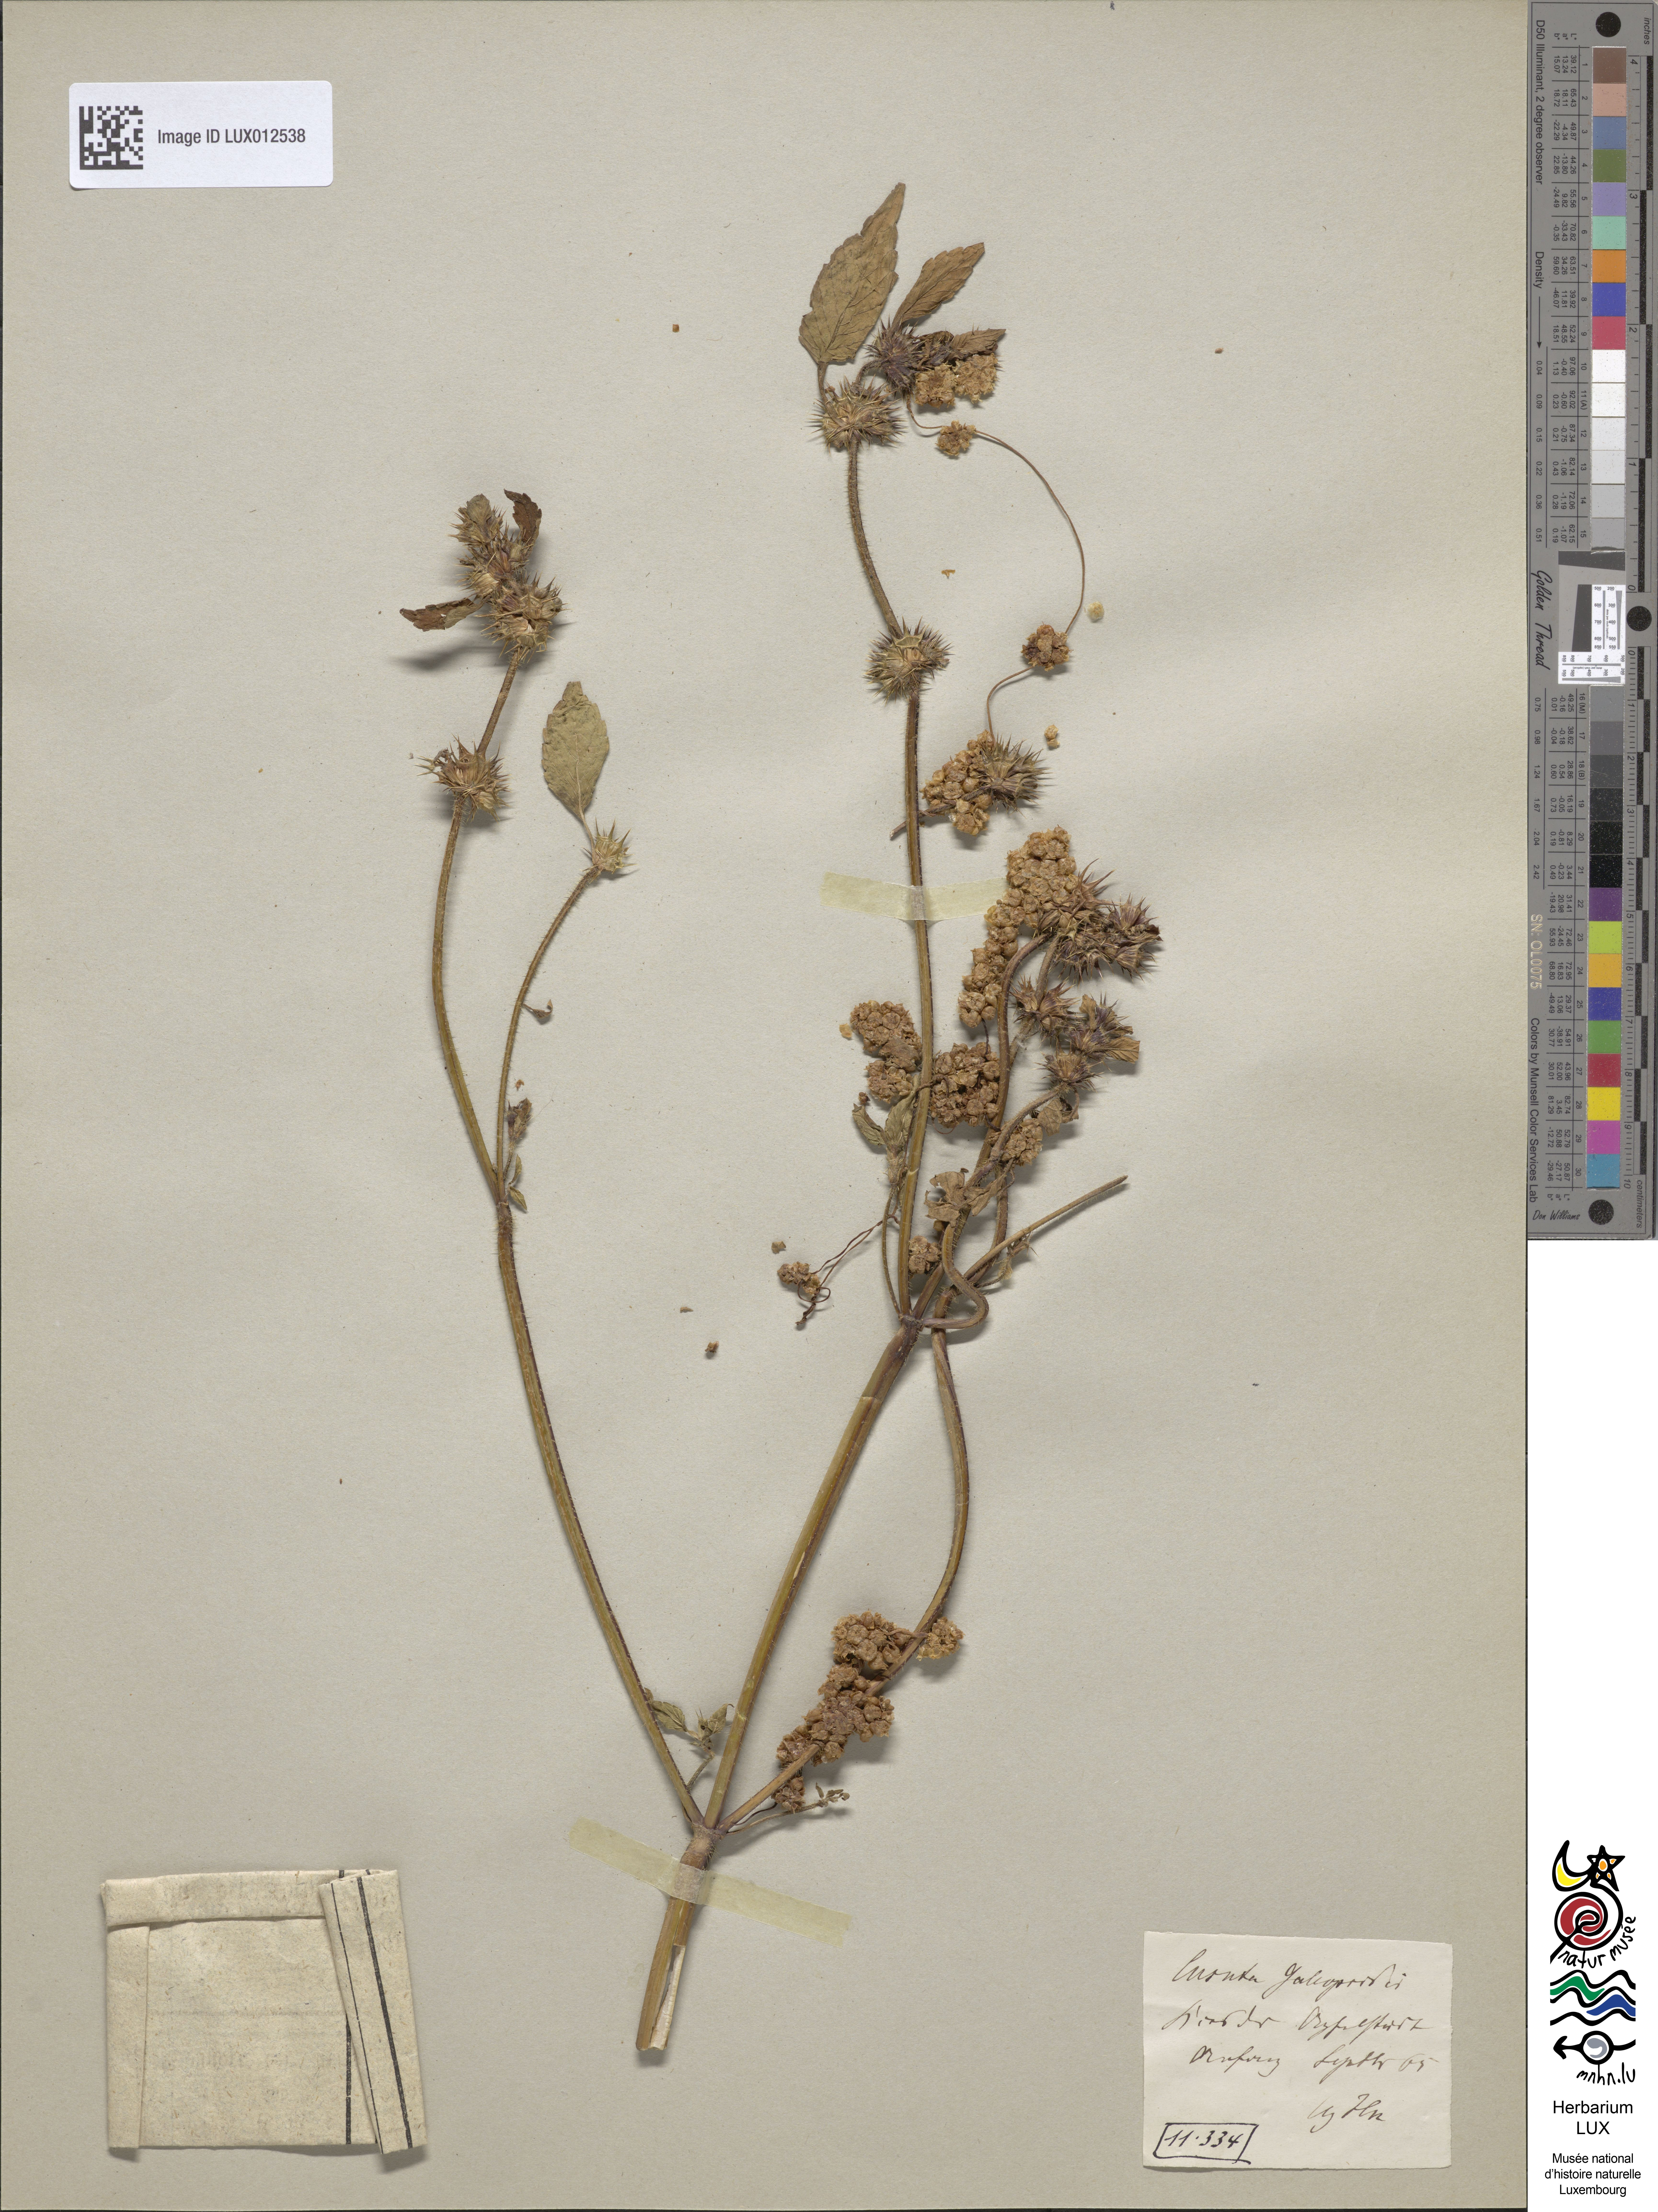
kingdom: Plantae
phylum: Tracheophyta
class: Magnoliopsida
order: Solanales
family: Convolvulaceae
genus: Cuscuta
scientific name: Cuscuta
